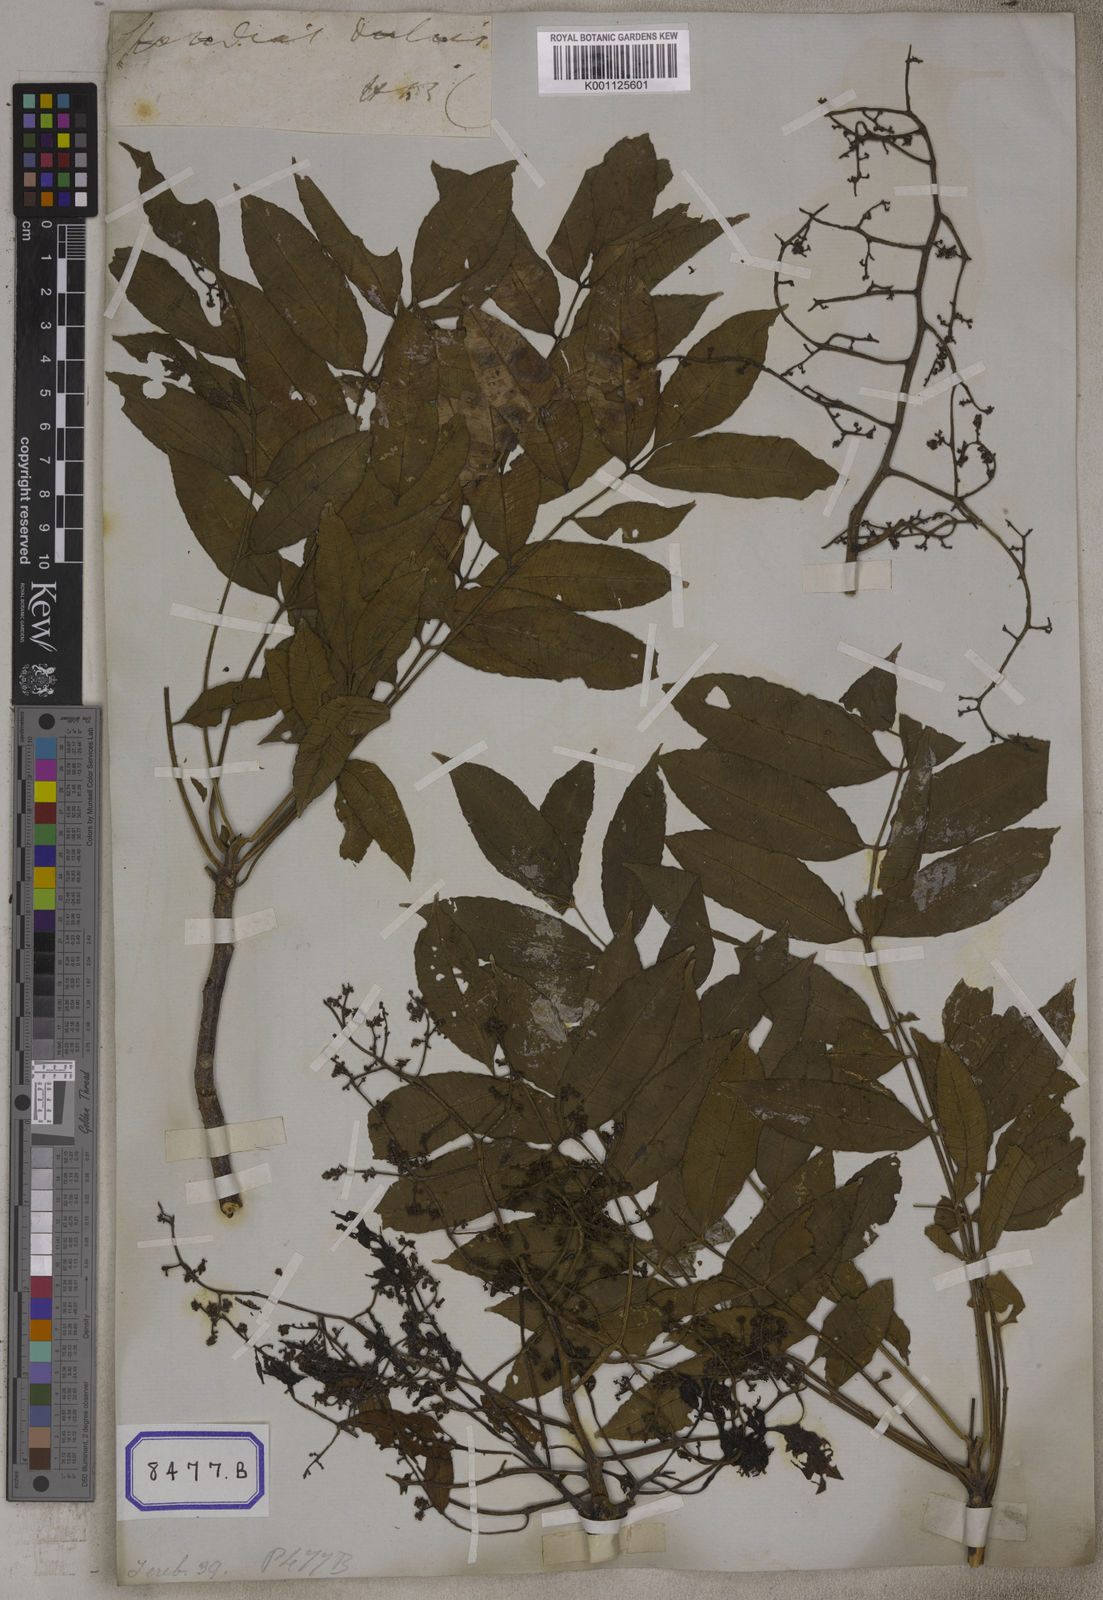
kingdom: Plantae
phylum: Tracheophyta
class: Magnoliopsida
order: Sapindales
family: Anacardiaceae
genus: Spondias
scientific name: Spondias
